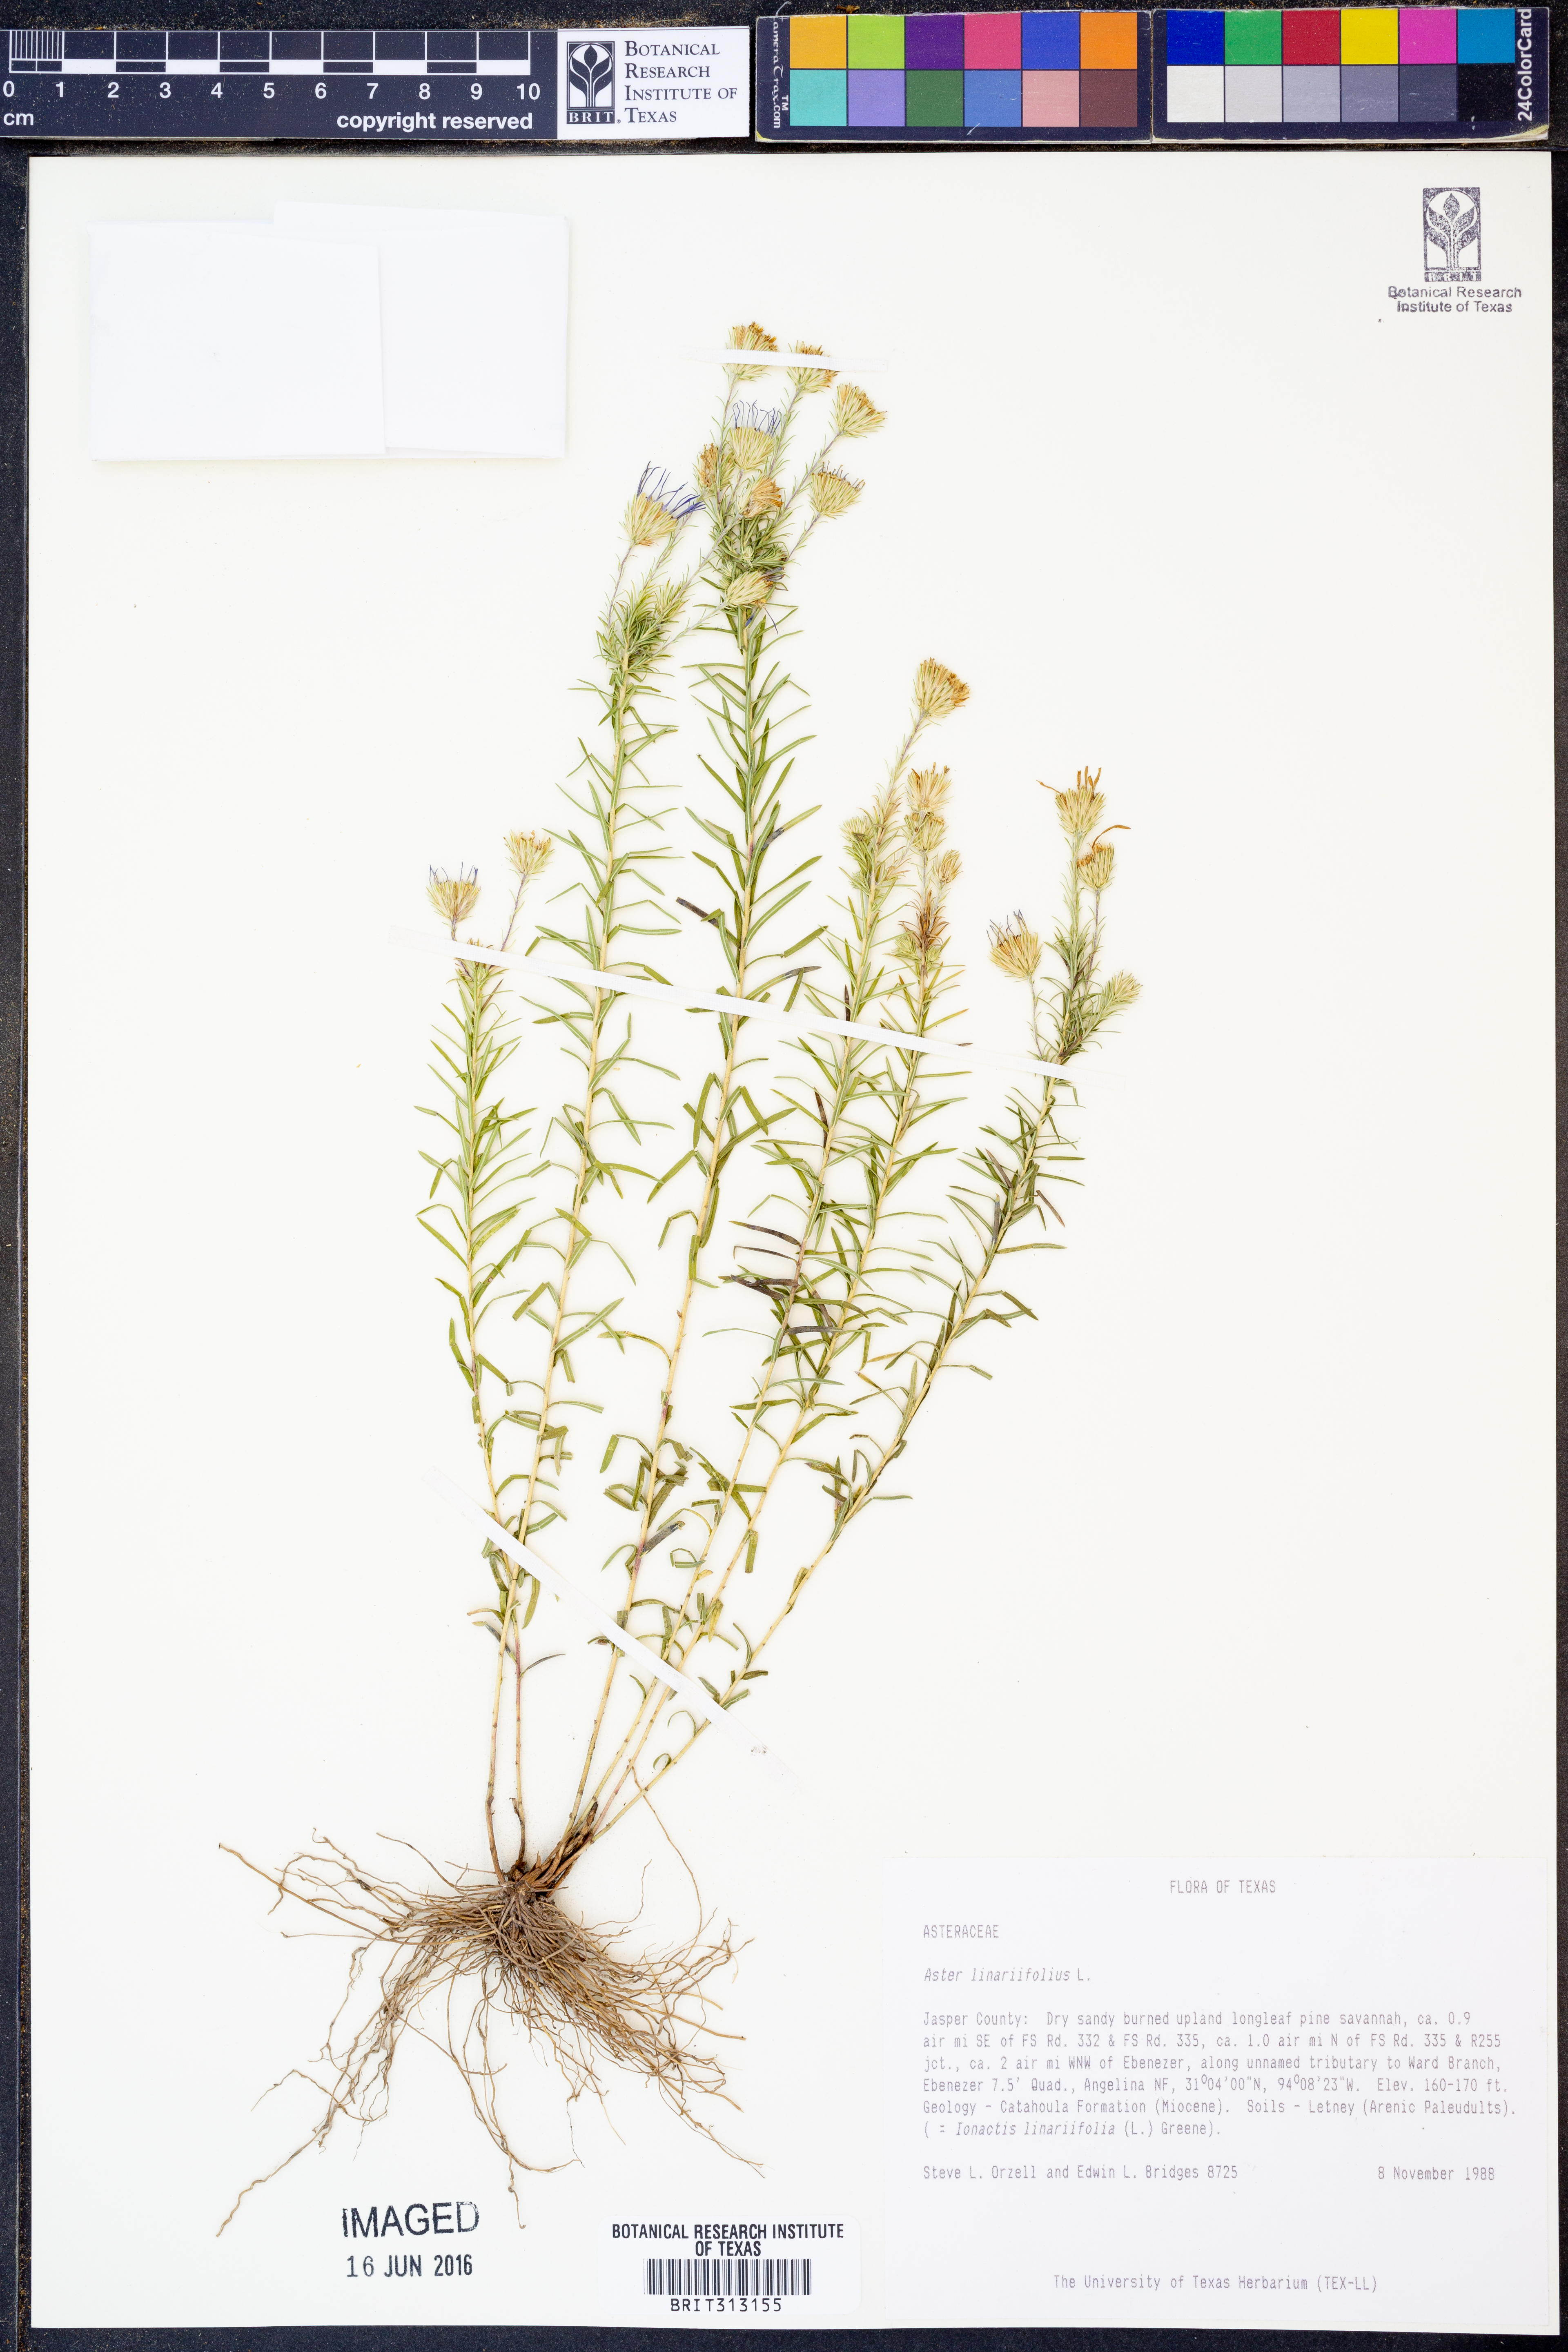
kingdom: Plantae
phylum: Tracheophyta
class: Magnoliopsida
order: Asterales
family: Asteraceae
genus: Ionactis
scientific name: Ionactis linariifolia
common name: Flax-leaf aster
